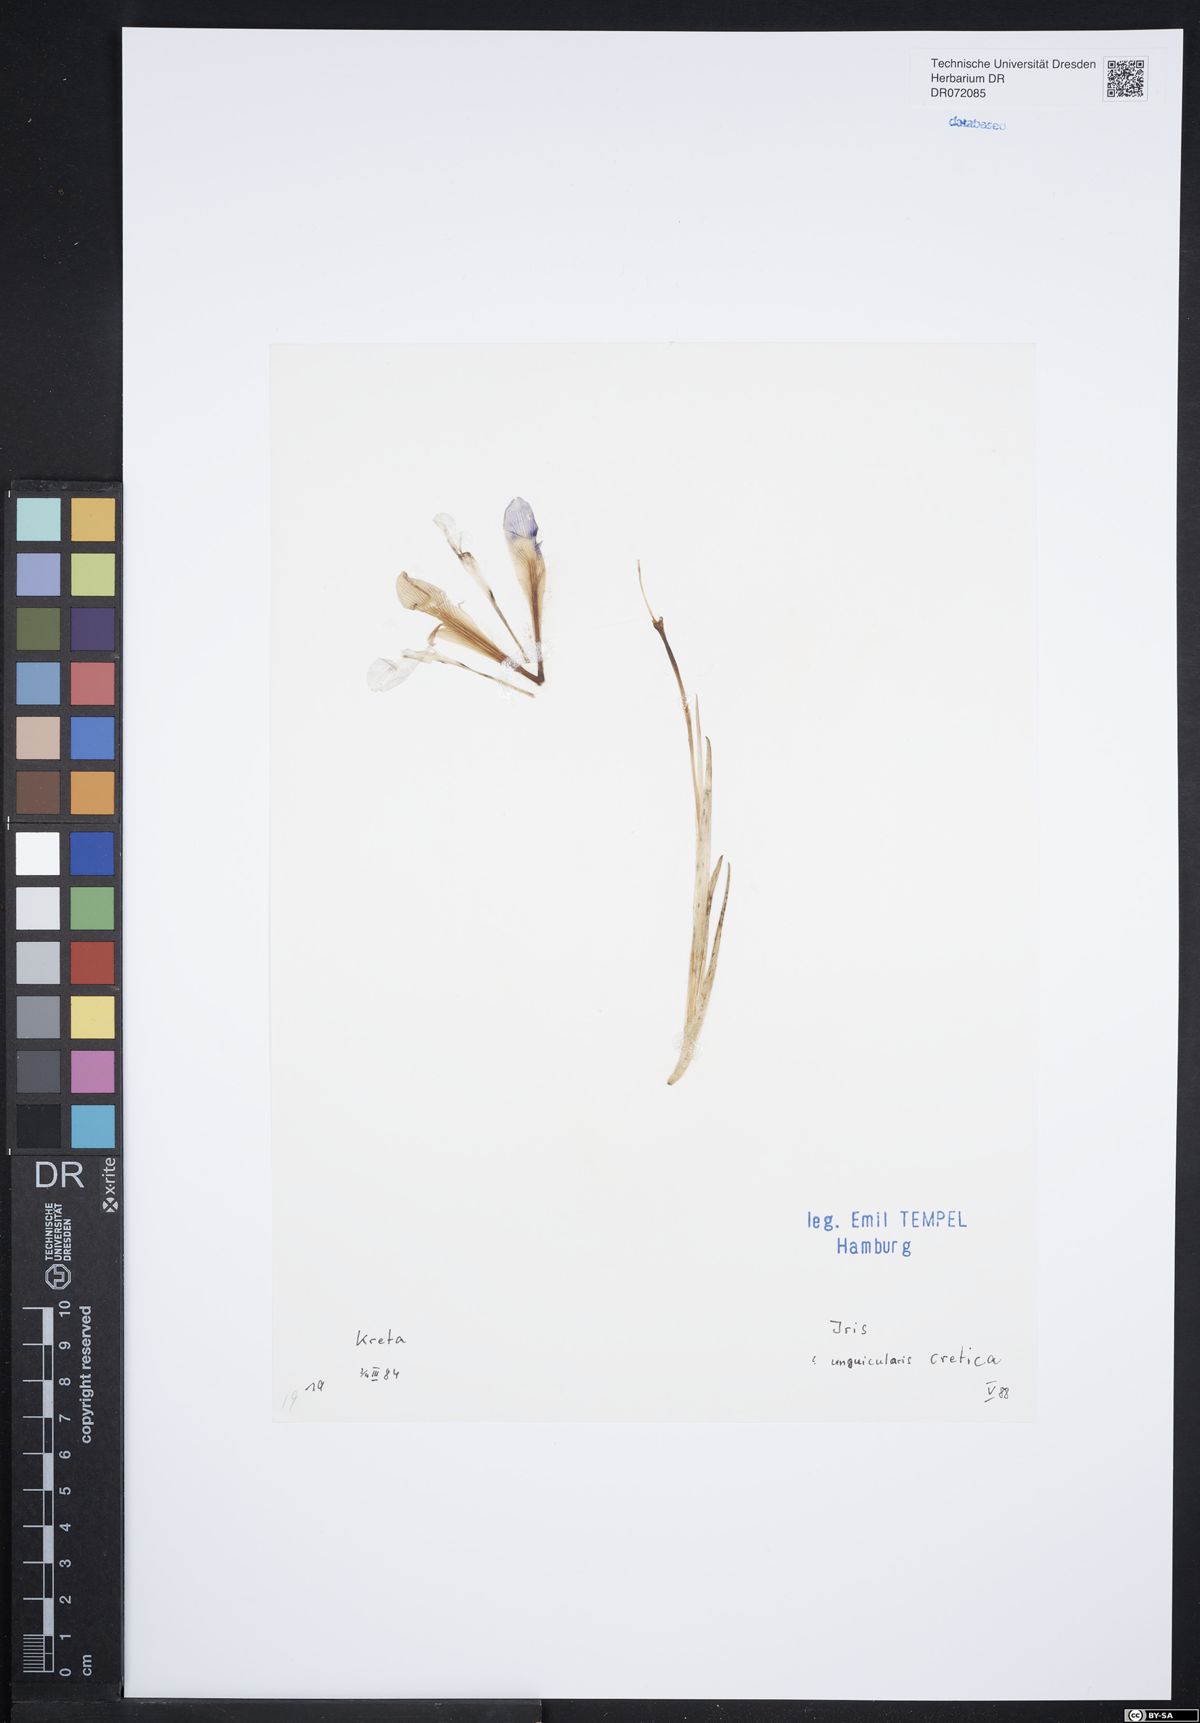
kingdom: Plantae
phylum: Tracheophyta
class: Liliopsida
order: Asparagales
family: Iridaceae
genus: Iris
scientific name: Iris unguicularis
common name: Algerian iris
